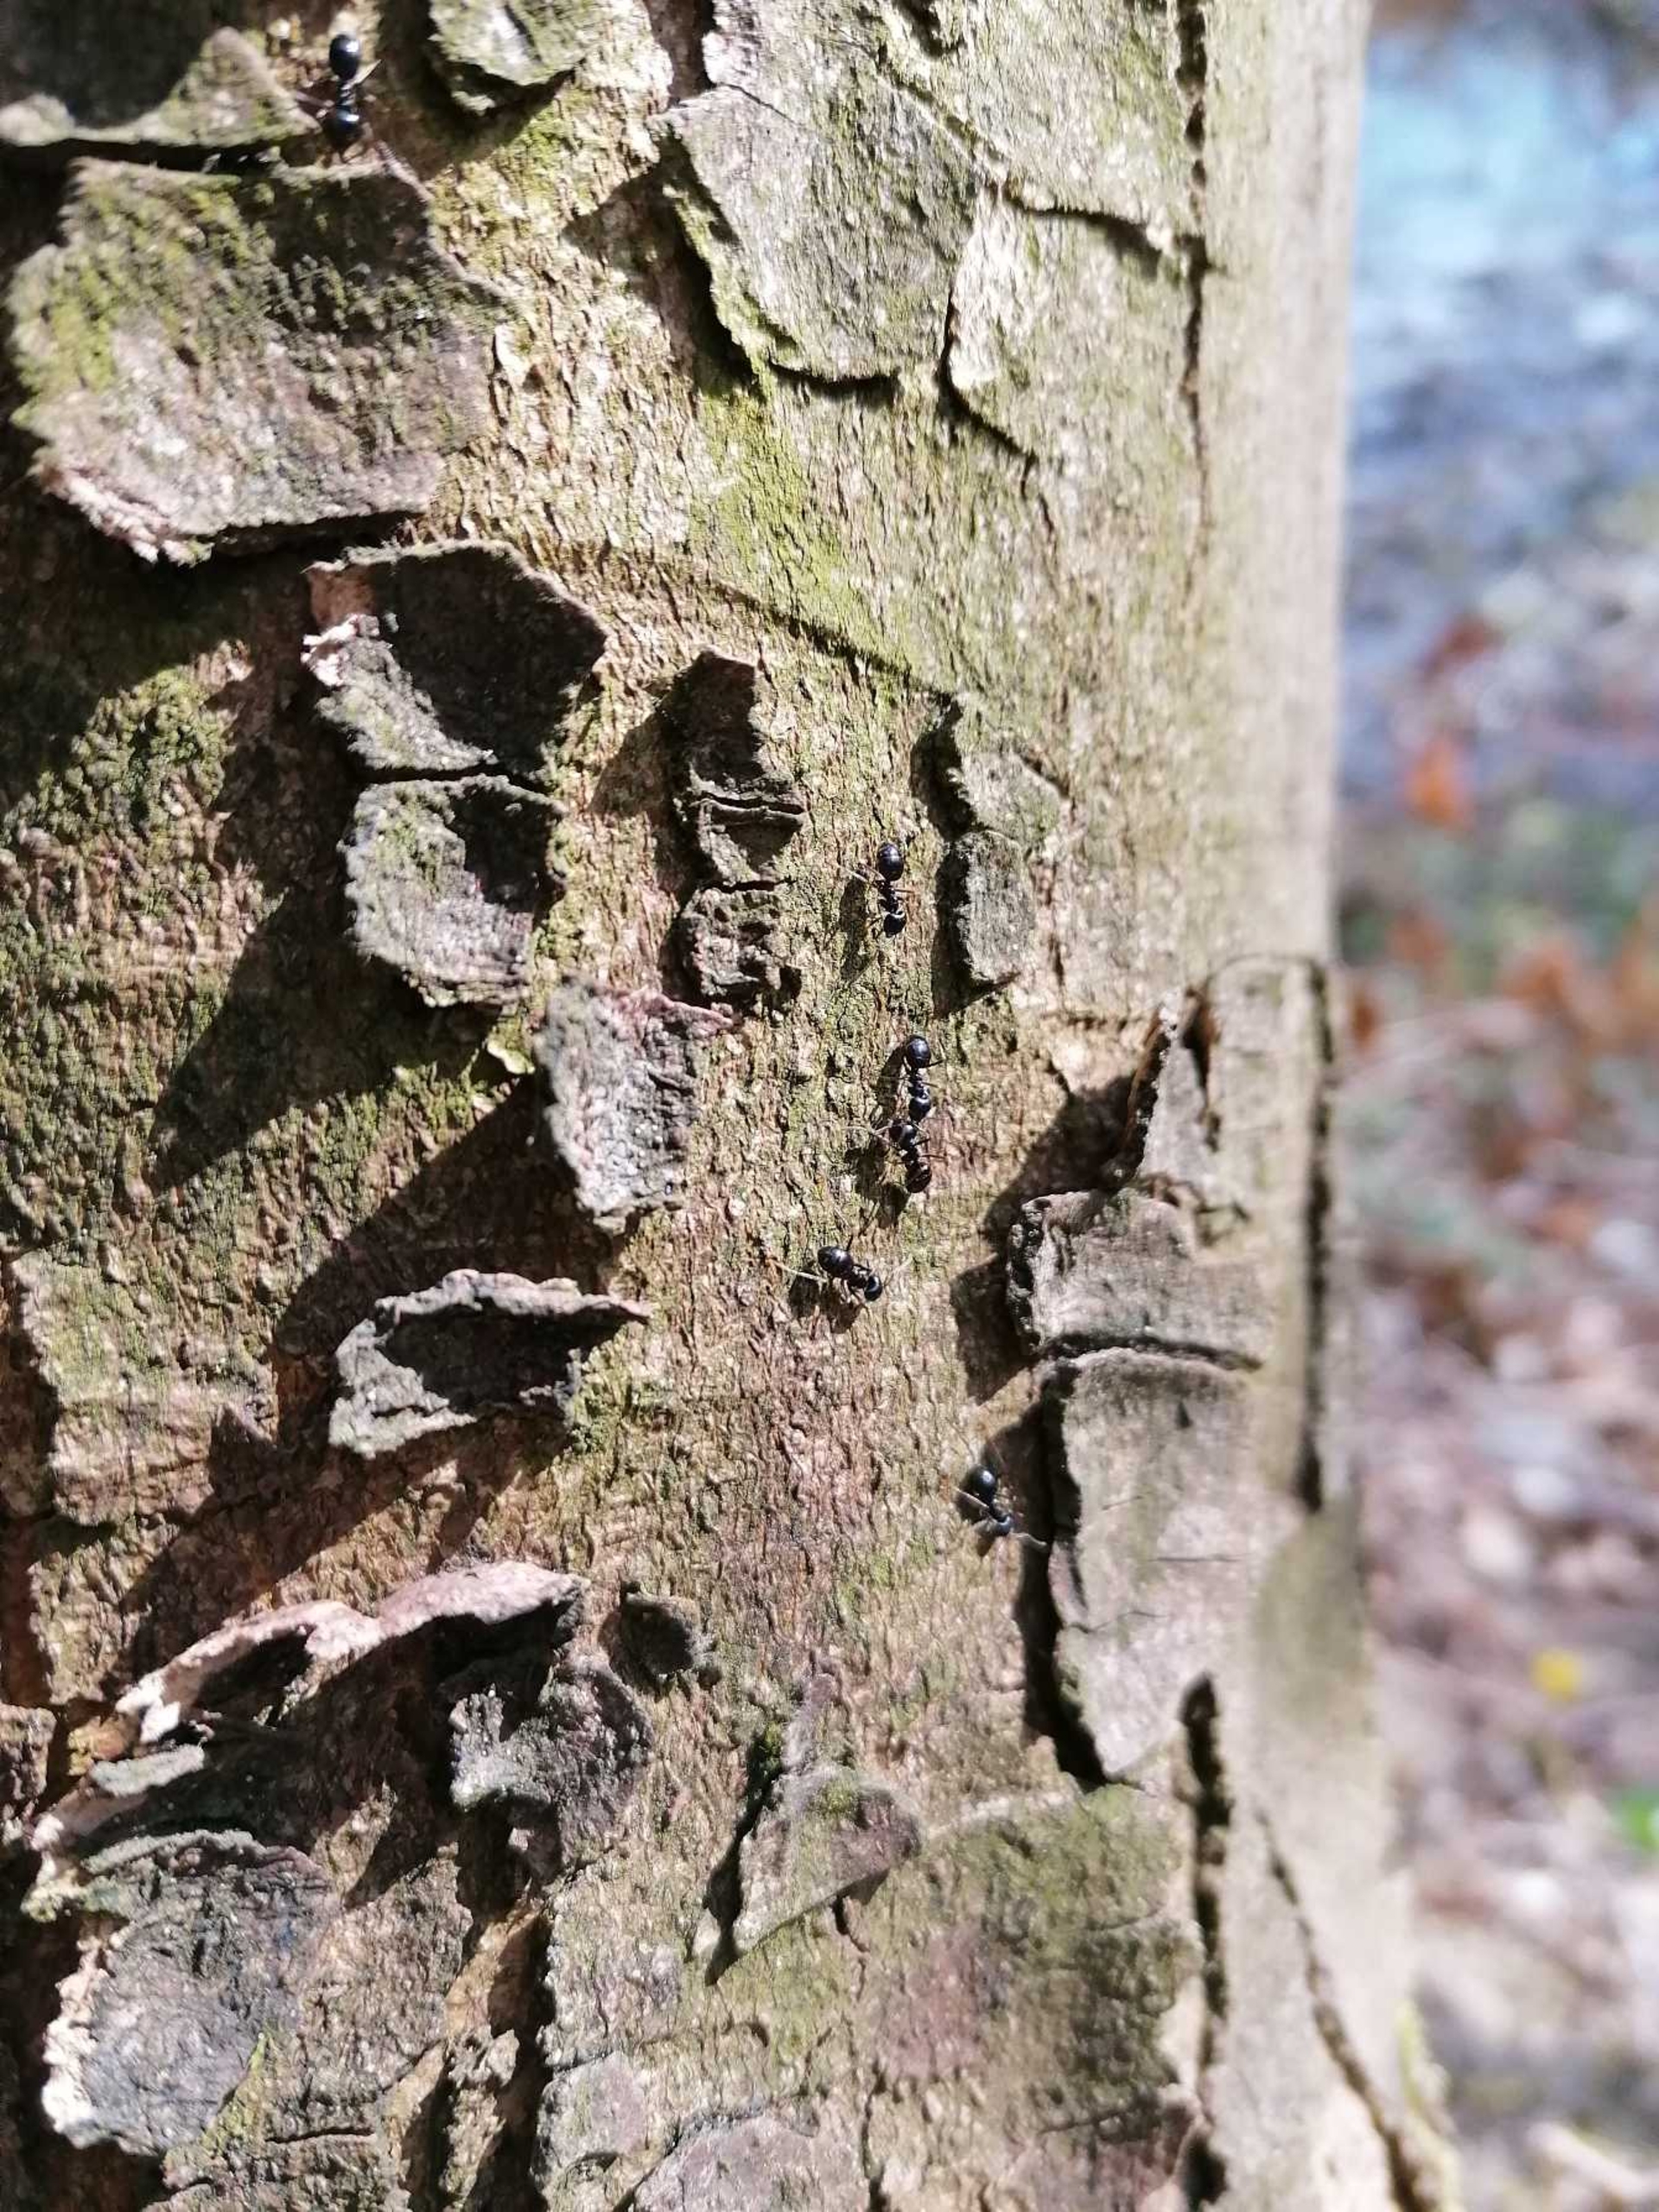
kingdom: Animalia
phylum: Arthropoda
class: Insecta
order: Hymenoptera
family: Formicidae
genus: Lasius
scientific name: Lasius fuliginosus
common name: Orangemyre
